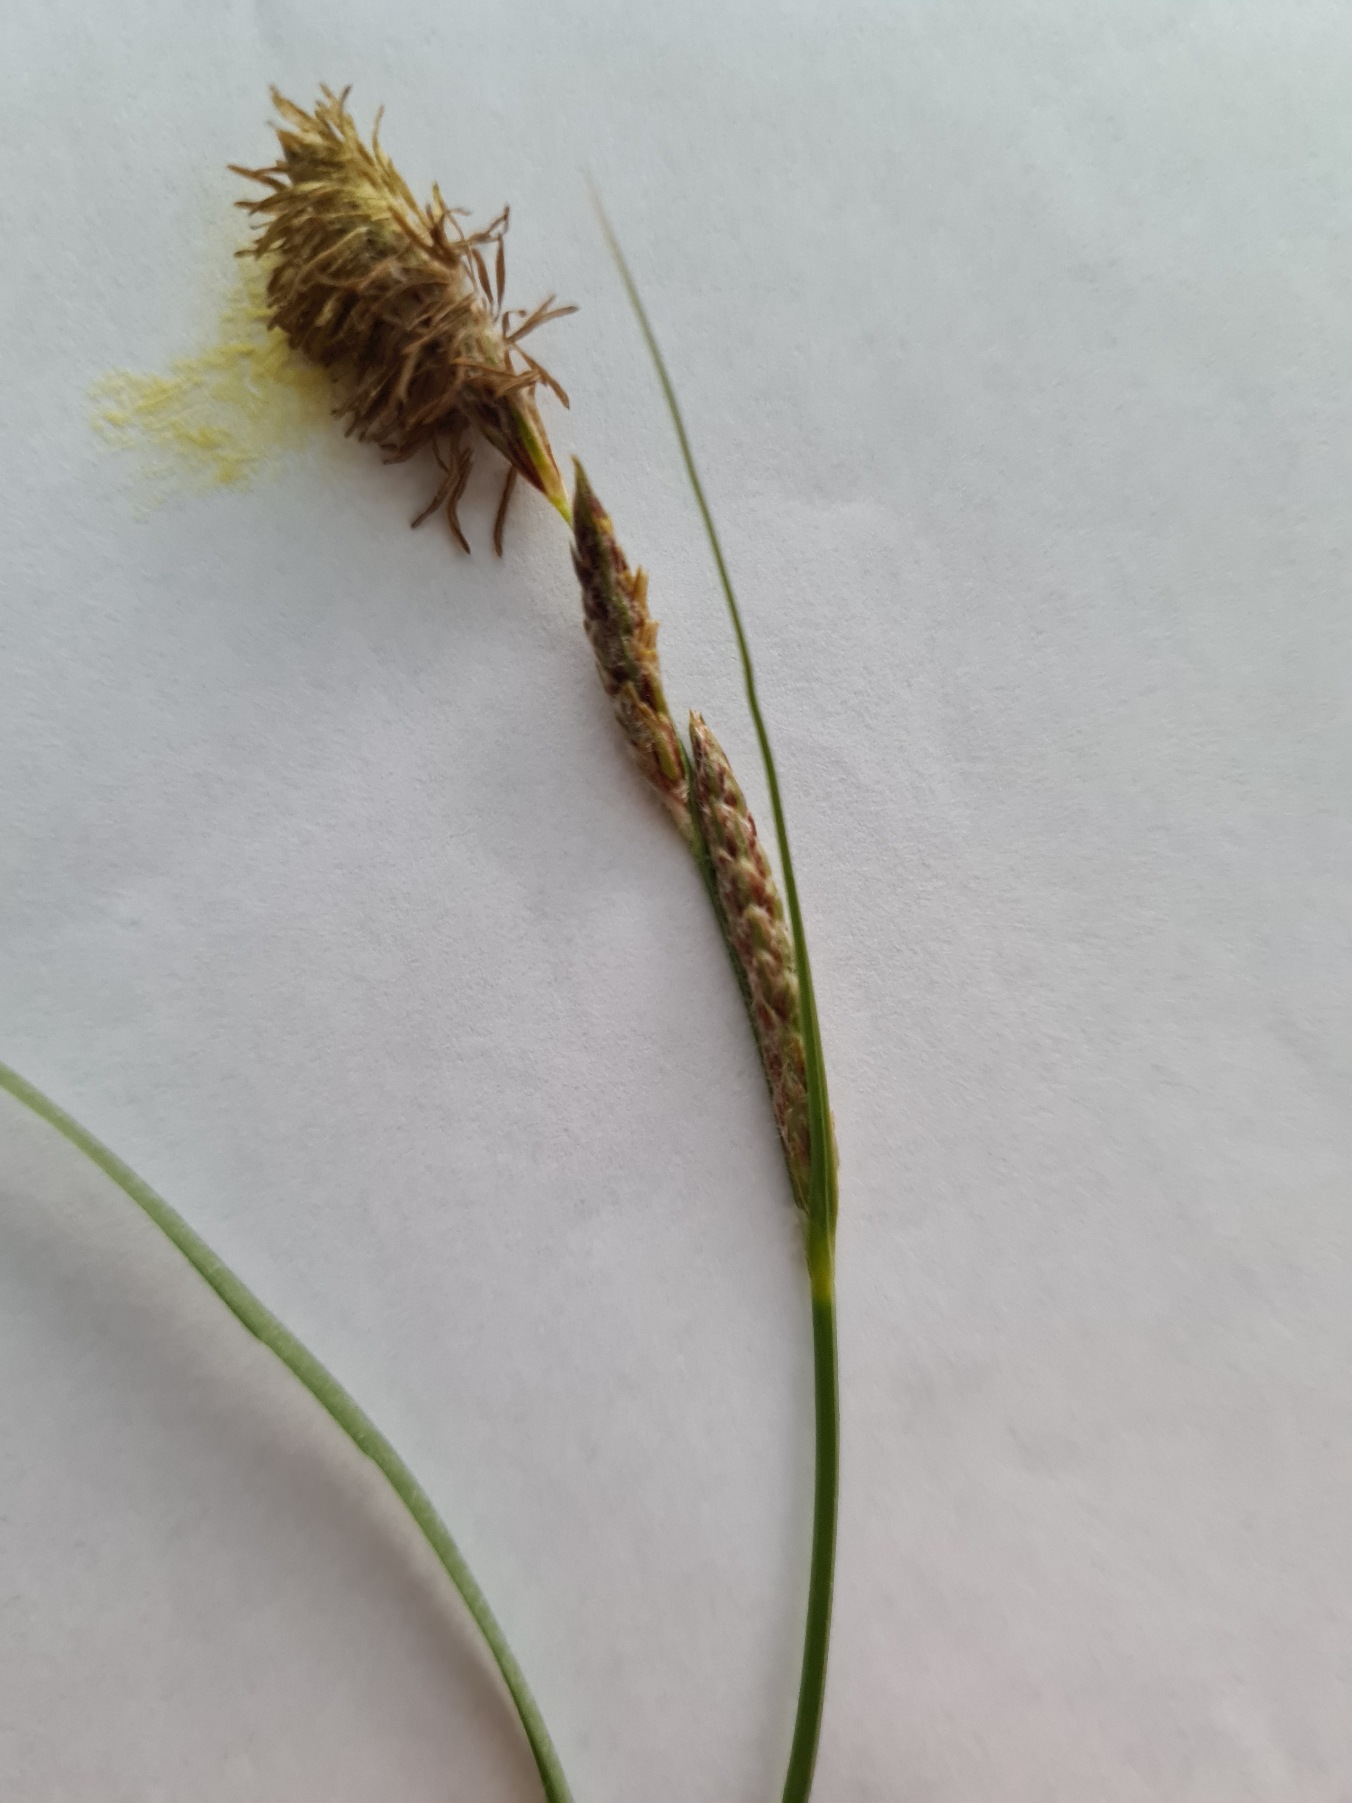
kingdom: Plantae
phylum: Tracheophyta
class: Liliopsida
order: Poales
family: Cyperaceae
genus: Carex
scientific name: Carex hirta
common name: Håret star
